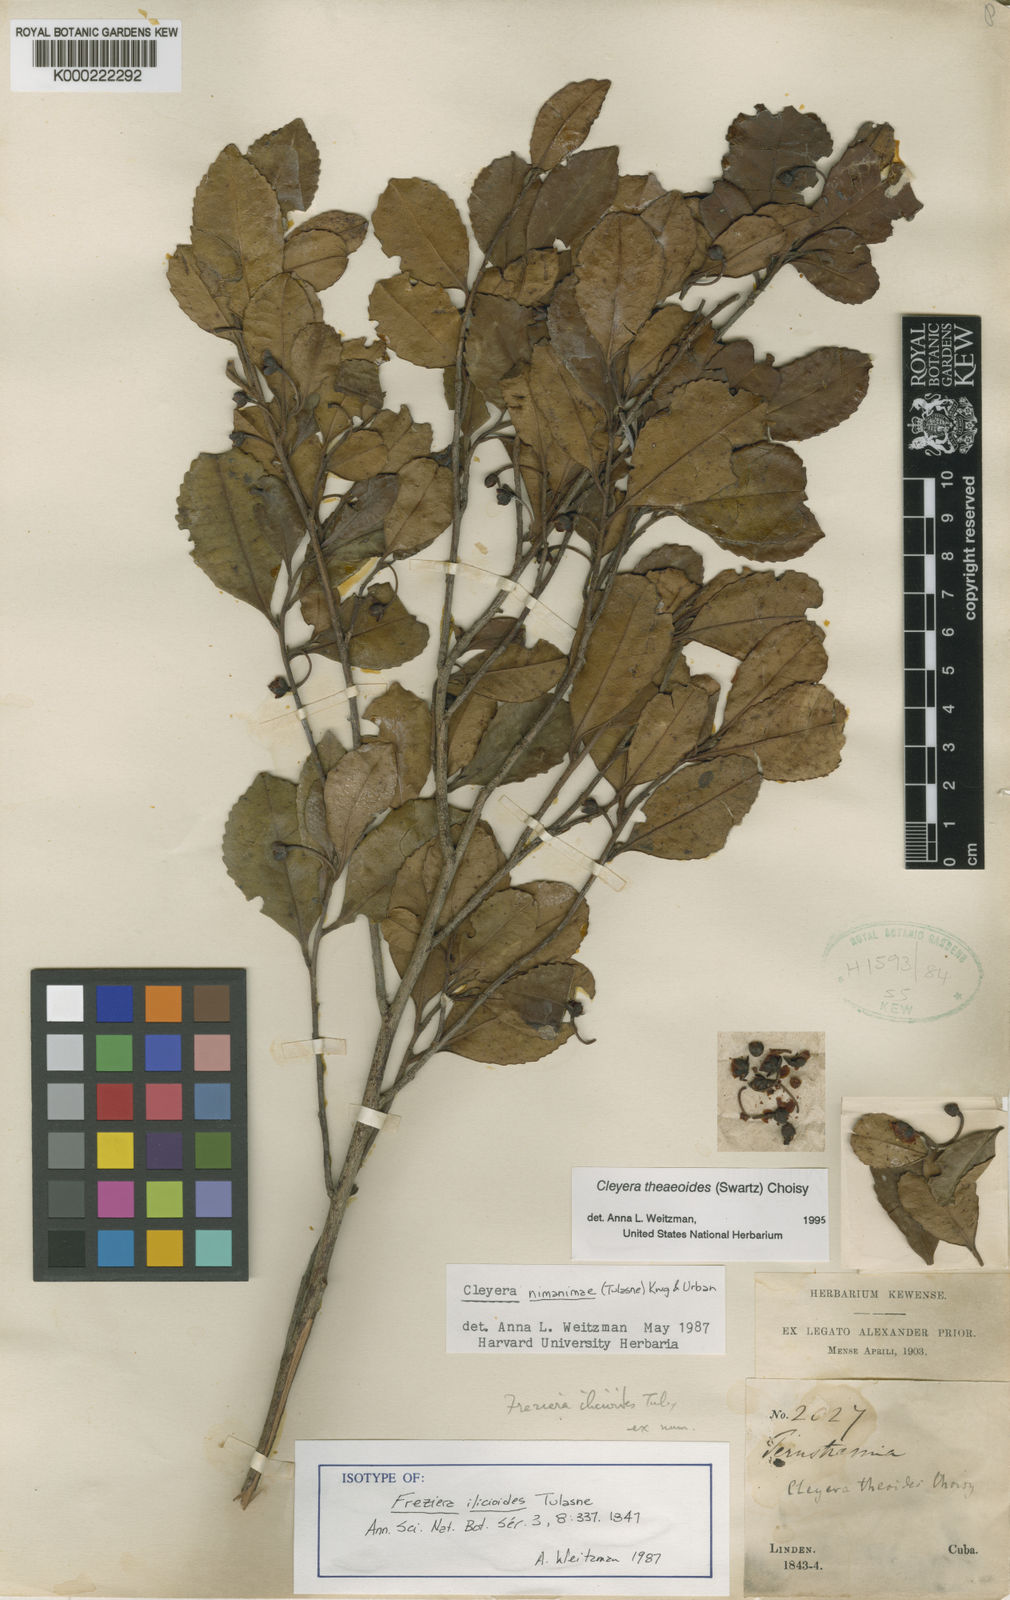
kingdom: Plantae
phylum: Tracheophyta
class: Magnoliopsida
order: Ericales
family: Pentaphylacaceae
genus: Cleyera
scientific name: Cleyera nimanimae
